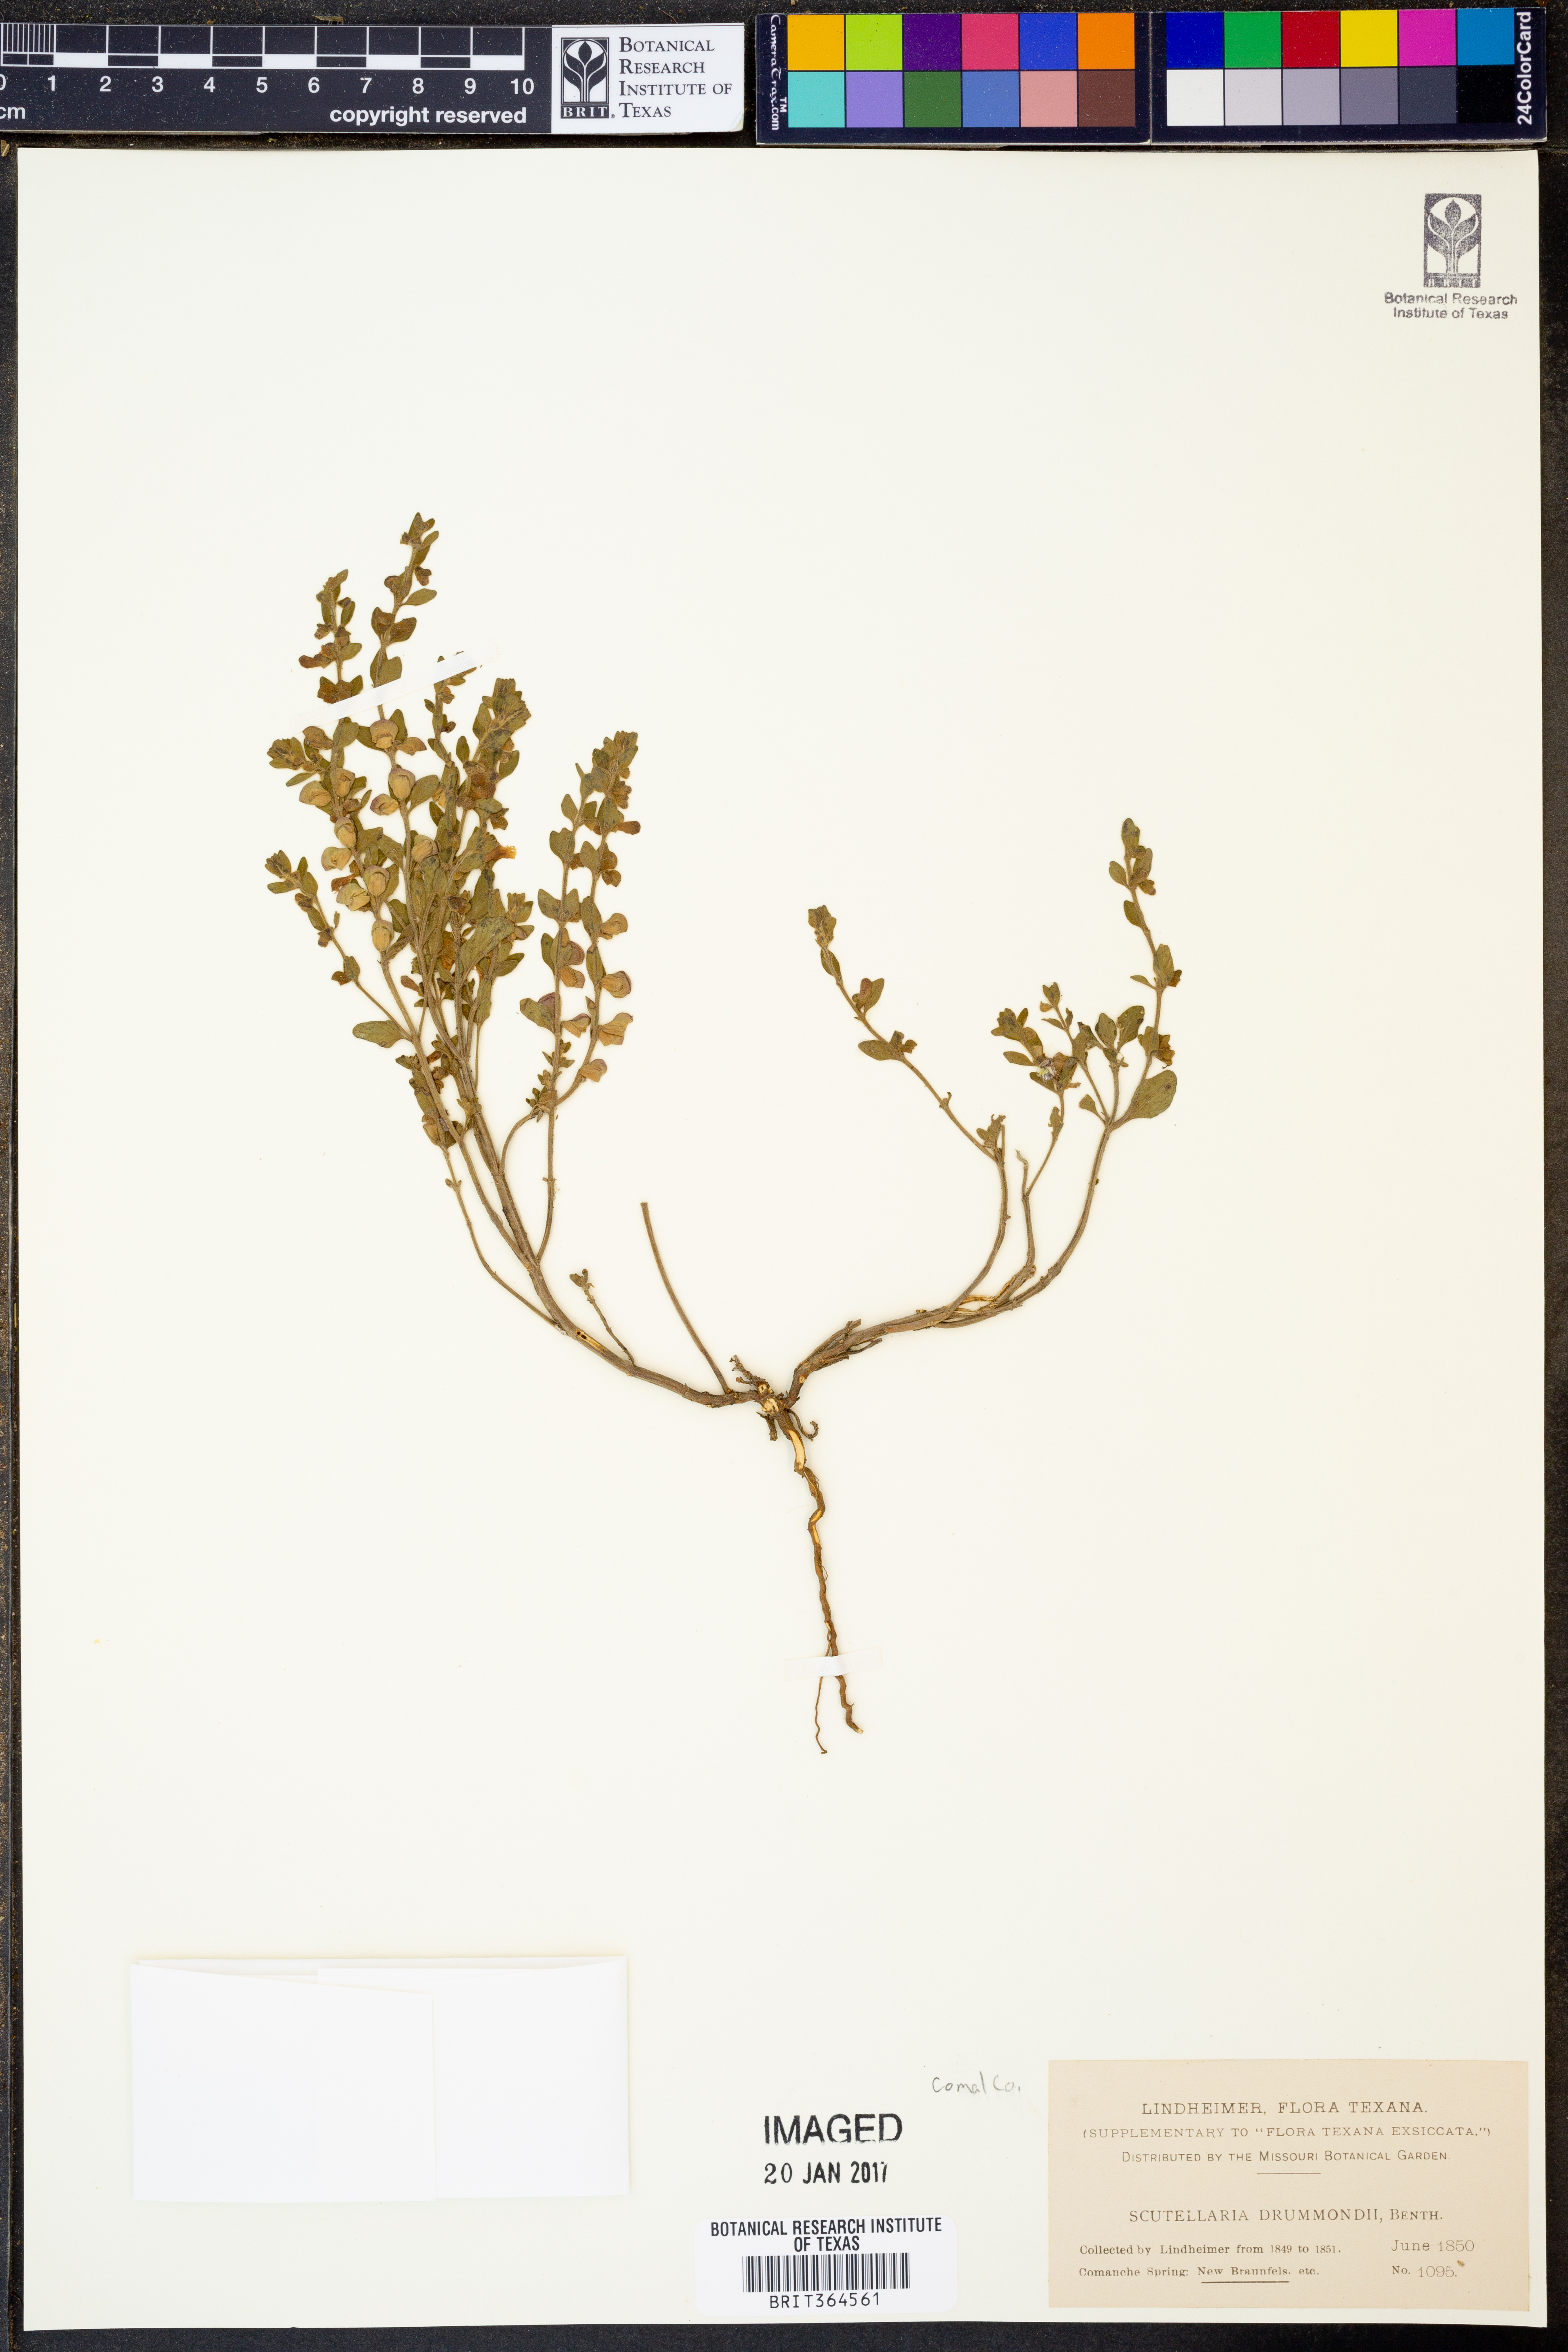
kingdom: Plantae
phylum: Tracheophyta
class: Magnoliopsida
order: Lamiales
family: Lamiaceae
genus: Scutellaria
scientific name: Scutellaria drummondii
